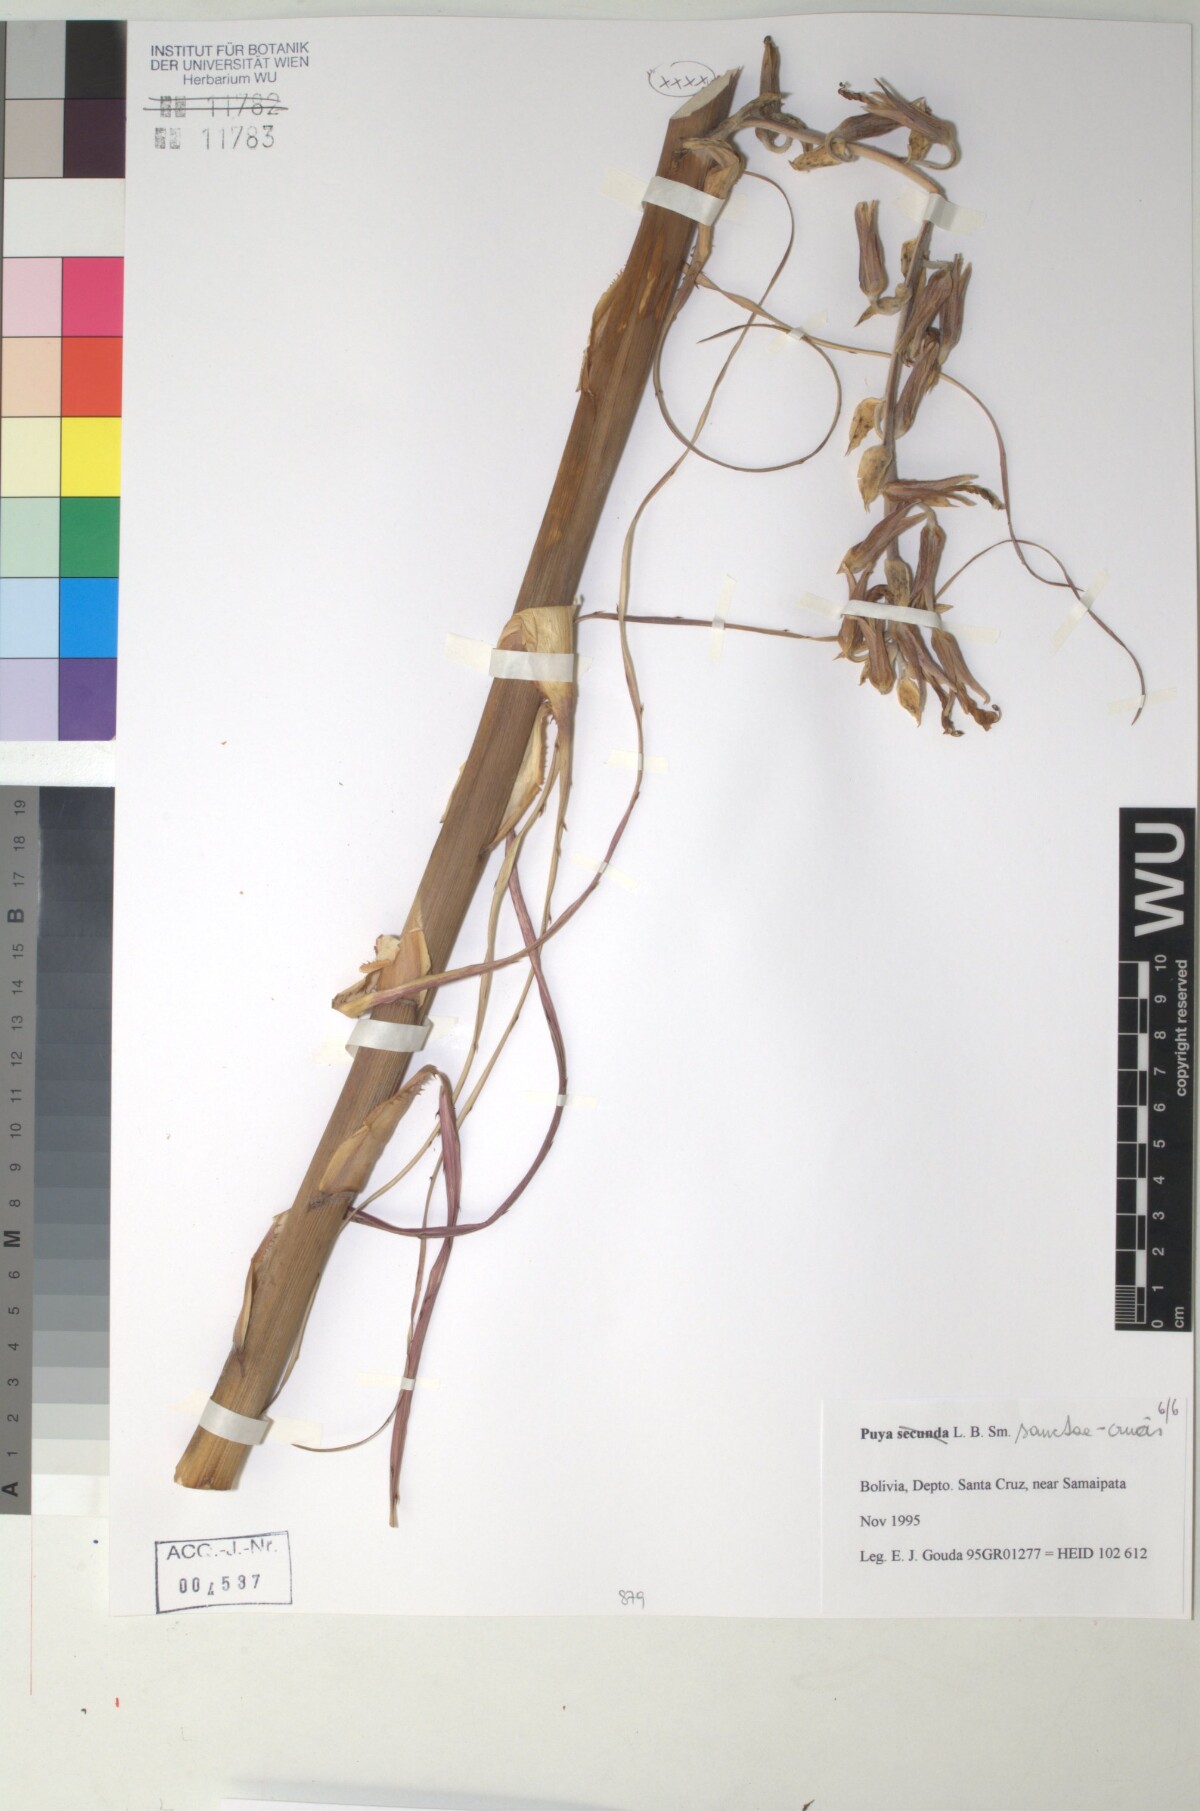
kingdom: Plantae
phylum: Tracheophyta
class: Liliopsida
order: Poales
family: Bromeliaceae
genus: Puya
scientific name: Puya secunda
